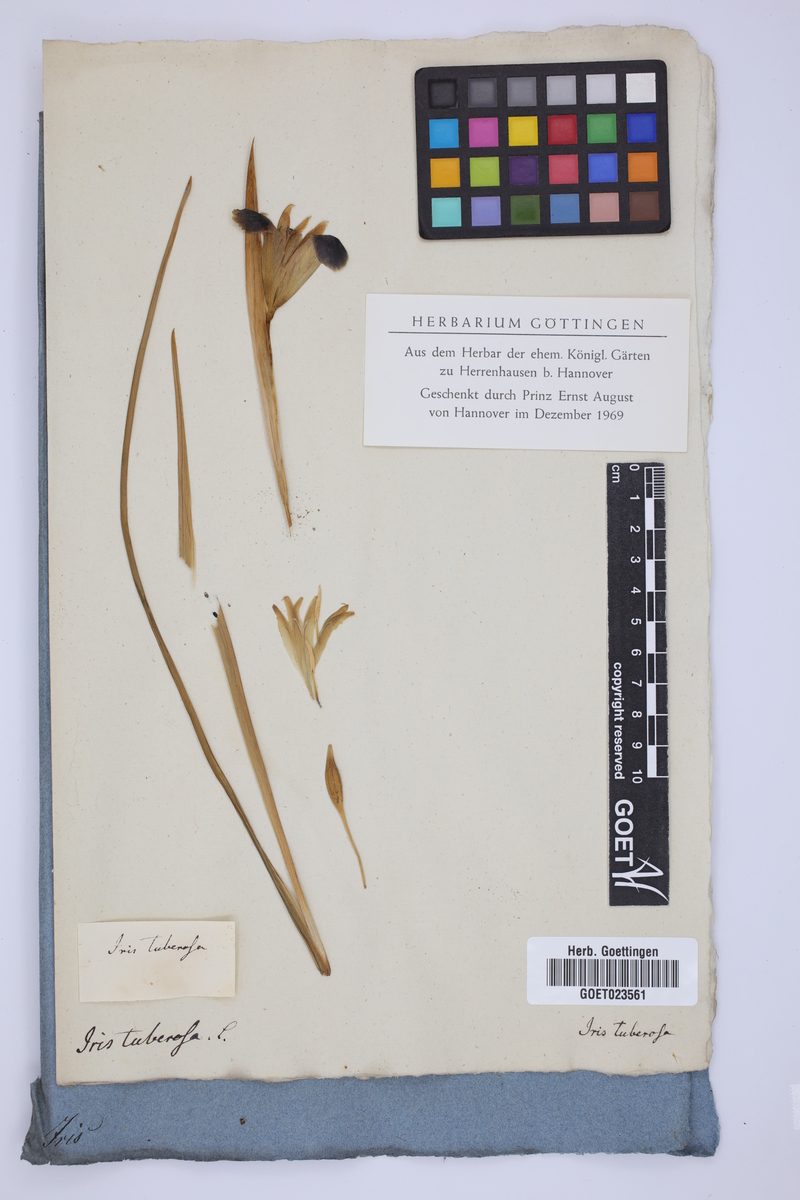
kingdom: Plantae
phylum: Tracheophyta
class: Liliopsida
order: Asparagales
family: Iridaceae
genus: Iris
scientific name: Iris tuberosa
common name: Snake's-head iris
